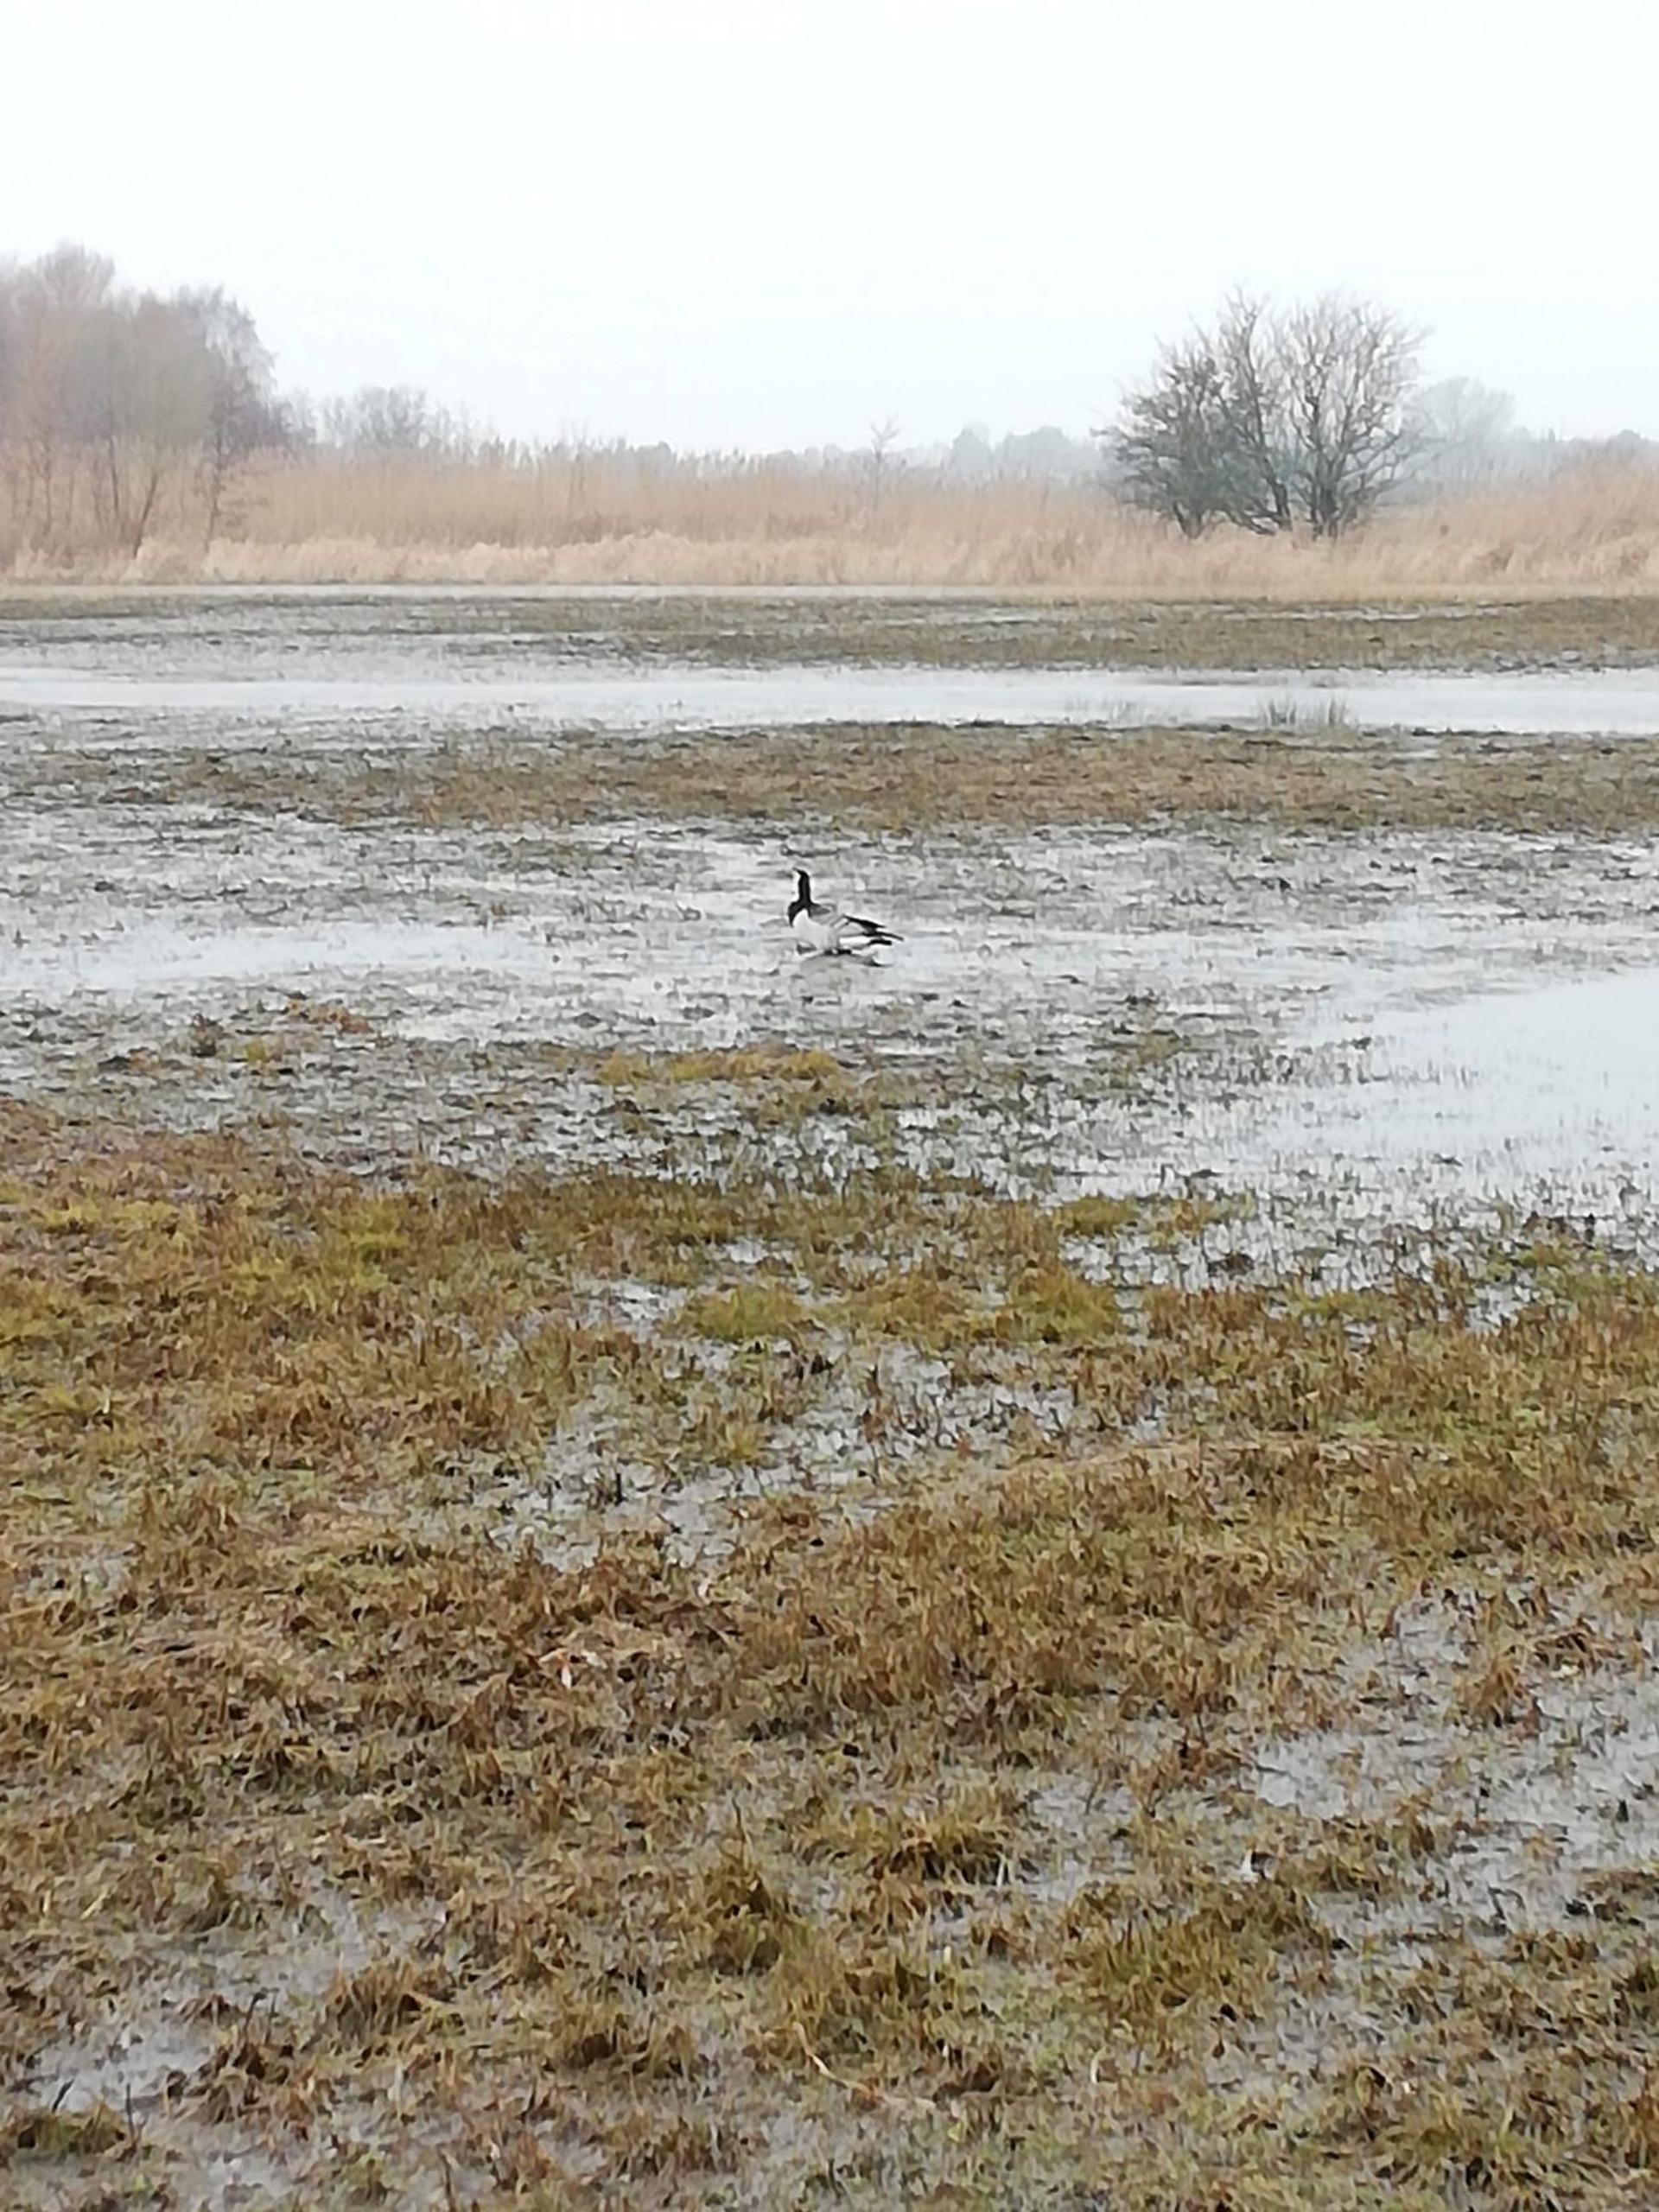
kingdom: Animalia
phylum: Chordata
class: Aves
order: Anseriformes
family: Anatidae
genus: Branta
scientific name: Branta leucopsis
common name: Bramgås
